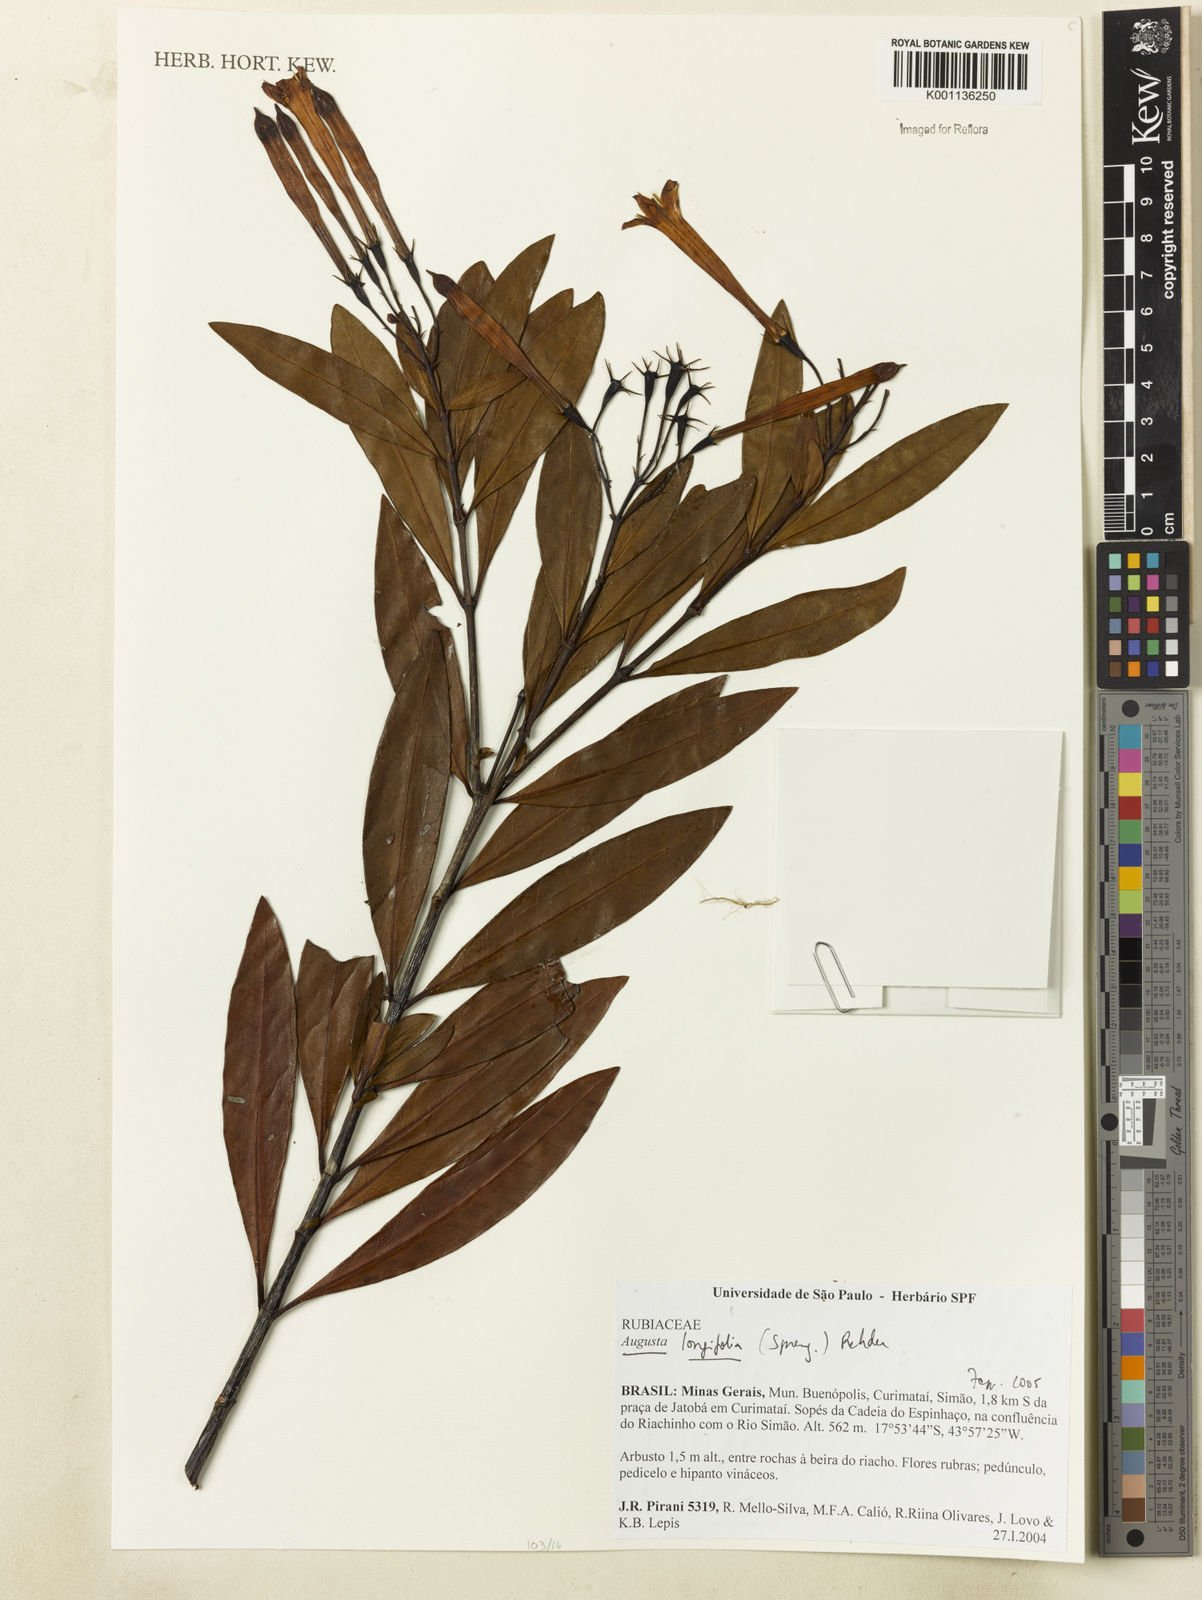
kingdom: Plantae
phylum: Tracheophyta
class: Magnoliopsida
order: Gentianales
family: Rubiaceae
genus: Augusta
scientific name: Augusta longifolia
